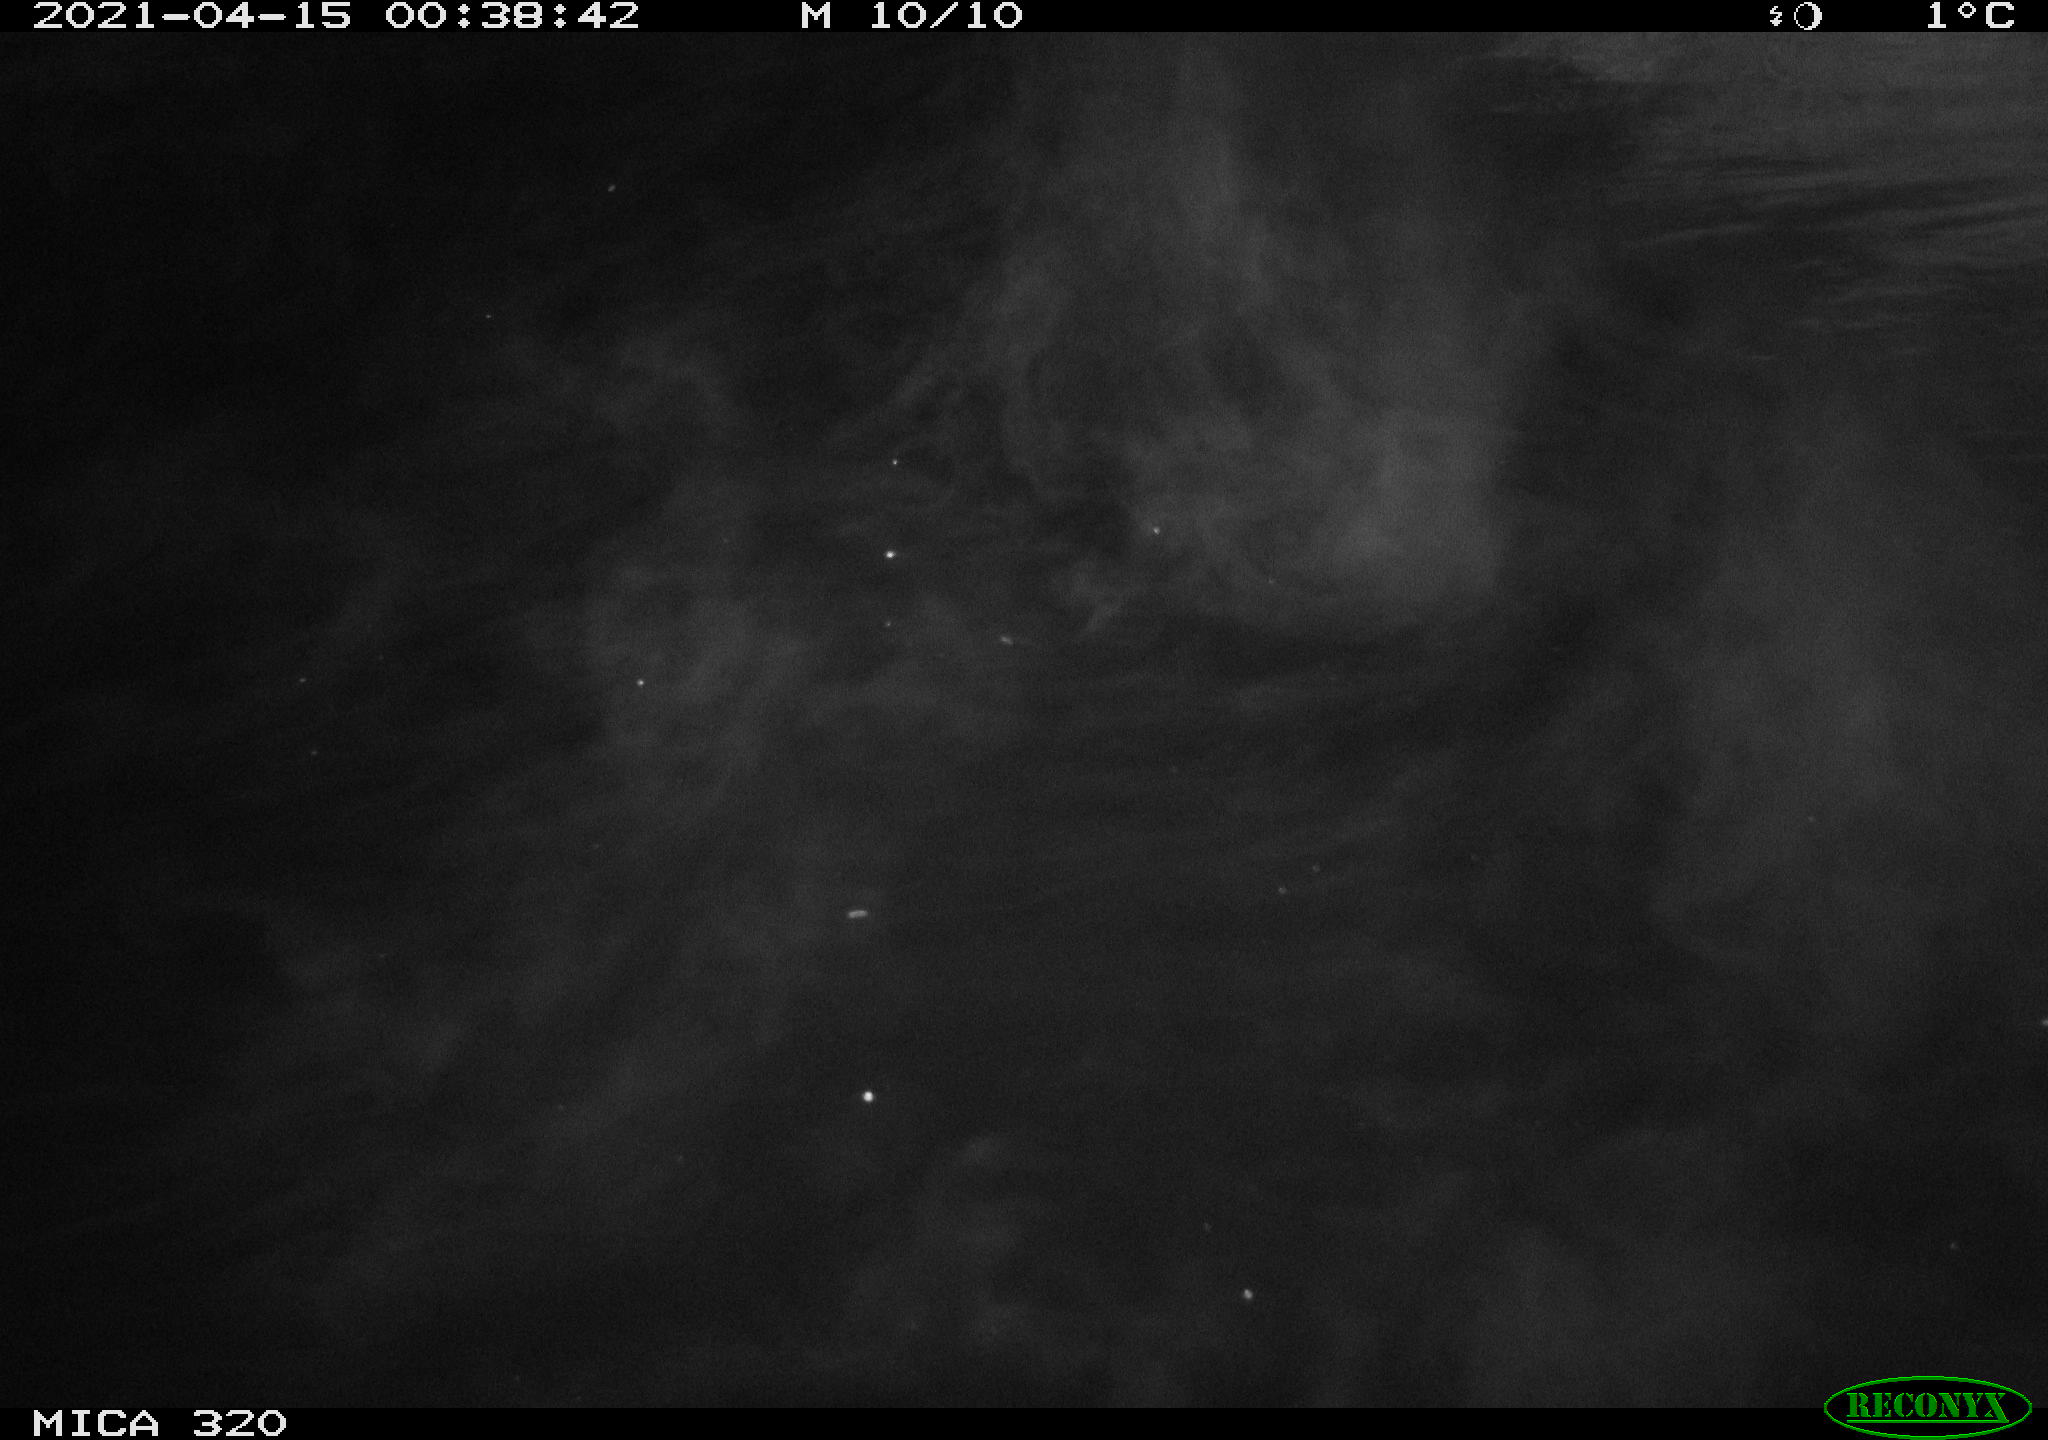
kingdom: Animalia
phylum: Chordata
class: Aves
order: Anseriformes
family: Anatidae
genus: Anas
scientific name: Anas platyrhynchos
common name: Mallard
